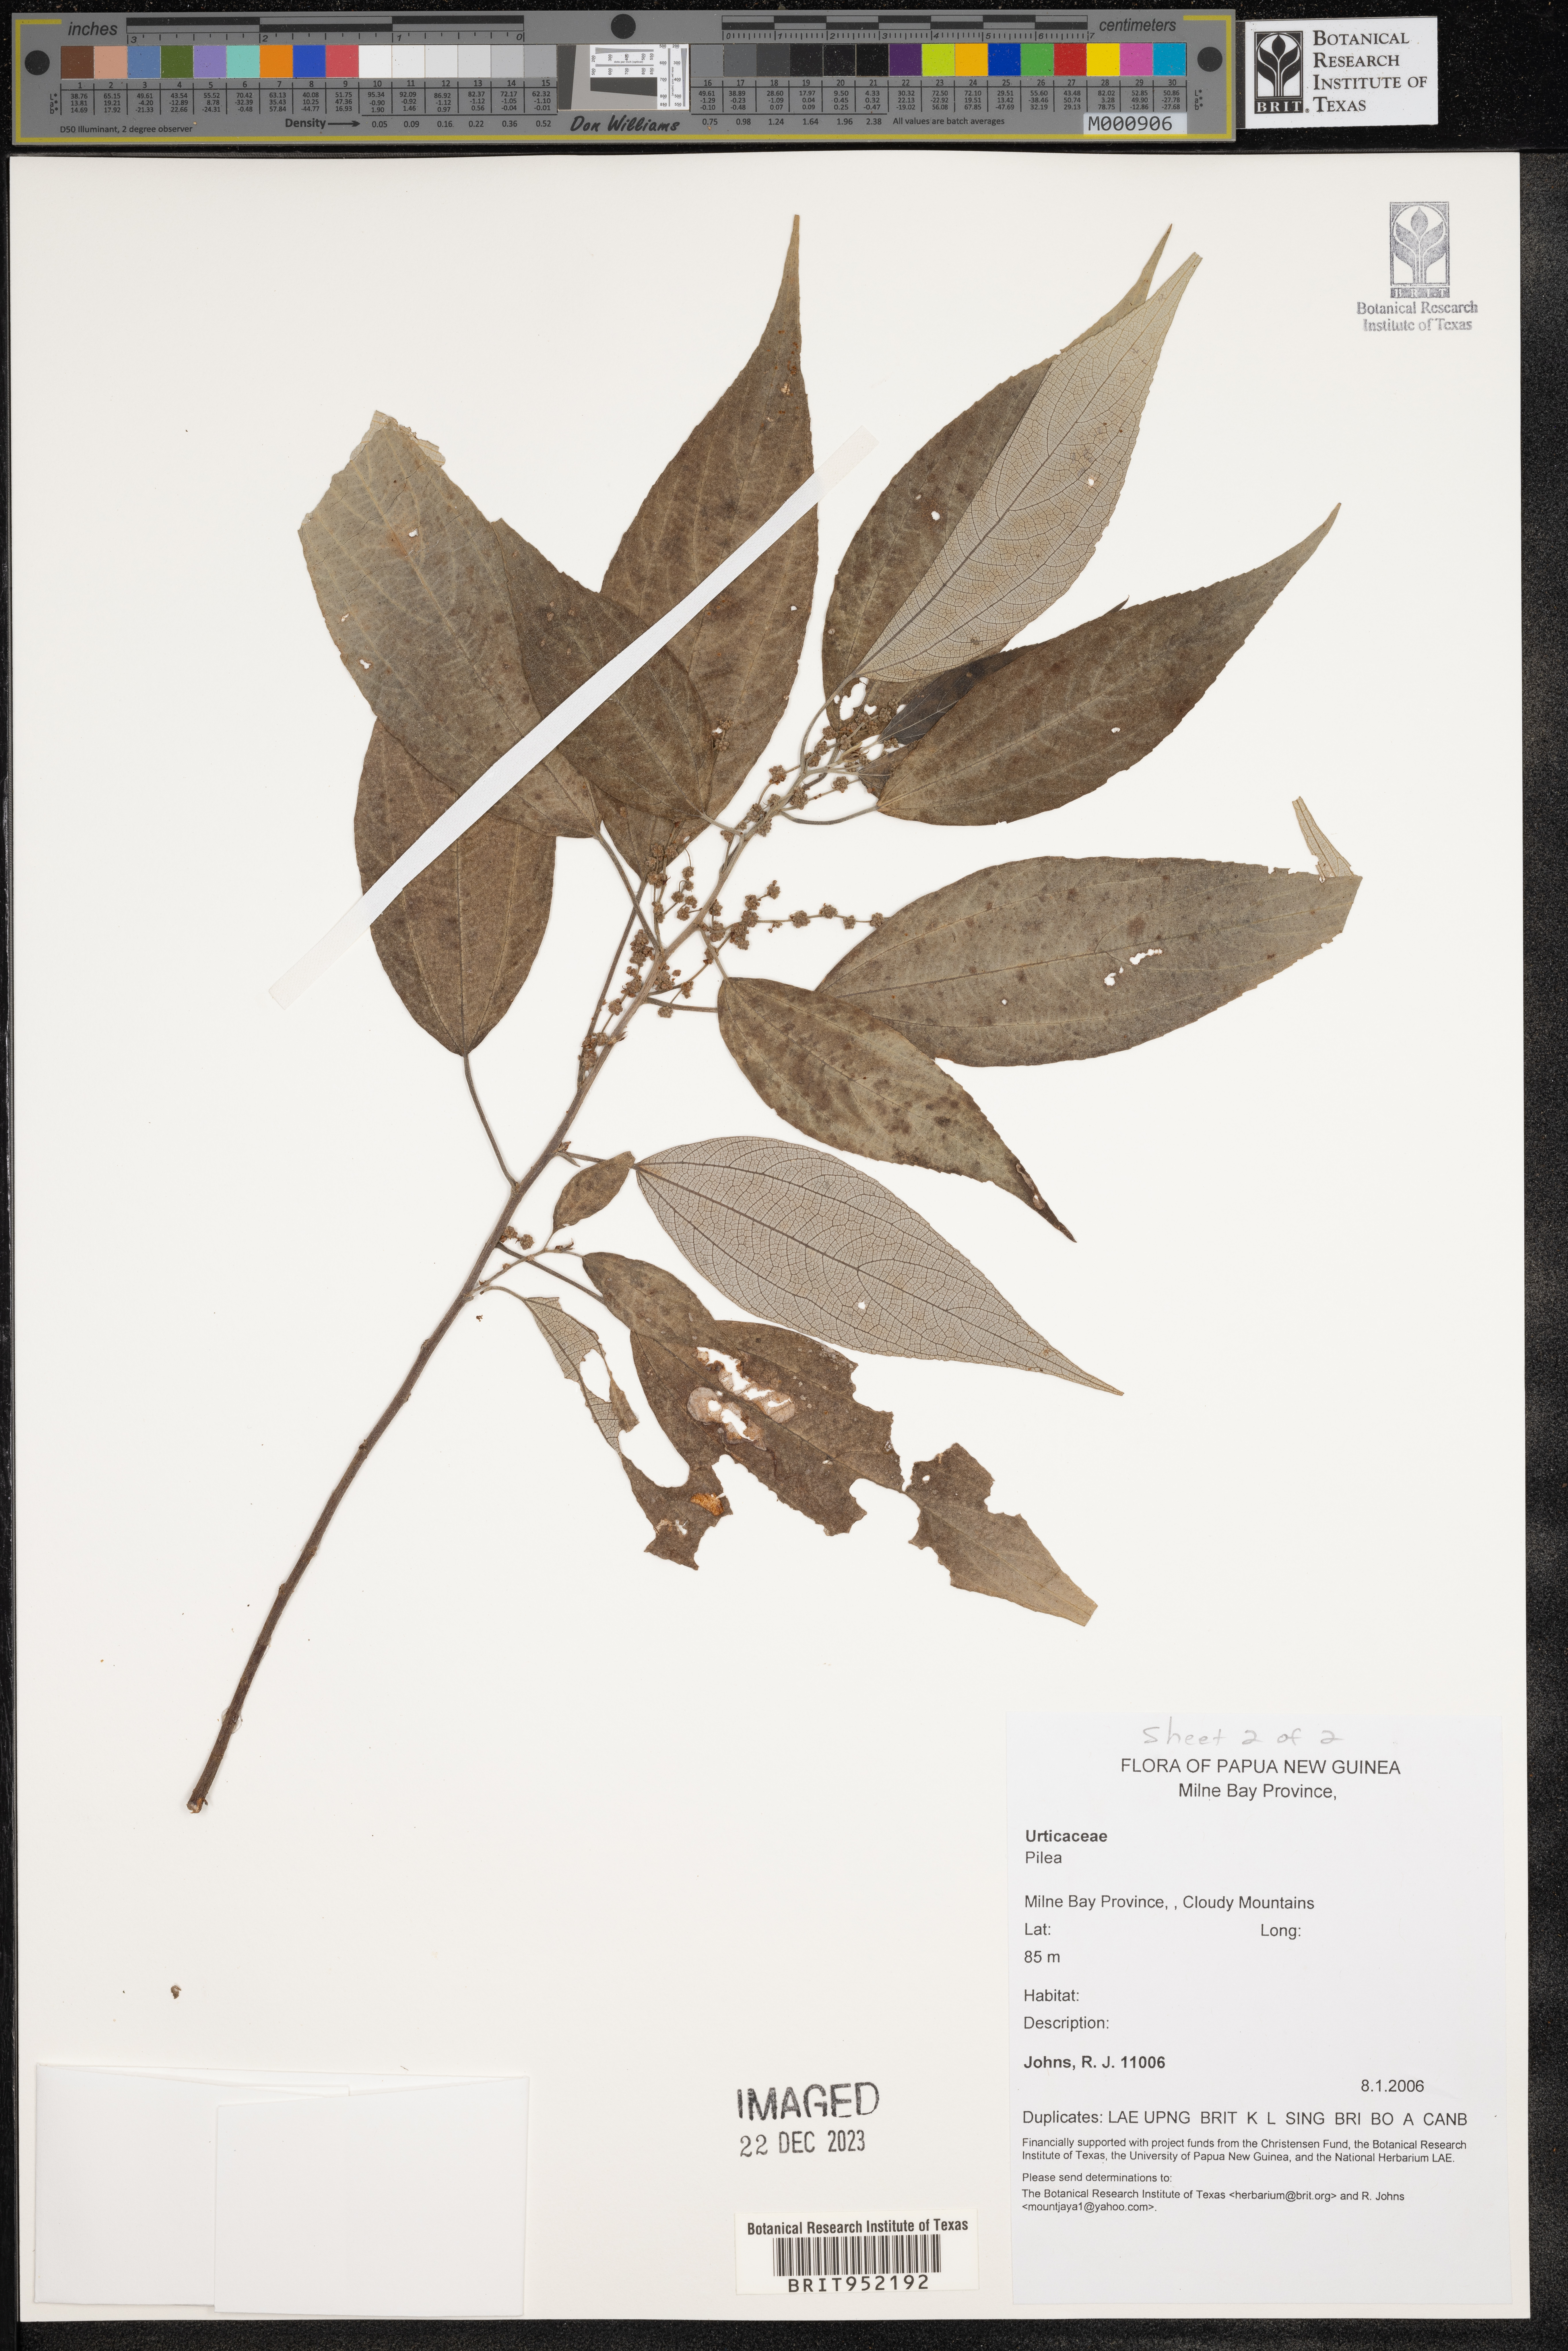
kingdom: Plantae
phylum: Tracheophyta
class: Magnoliopsida
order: Rosales
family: Urticaceae
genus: Pilea
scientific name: Pilea
